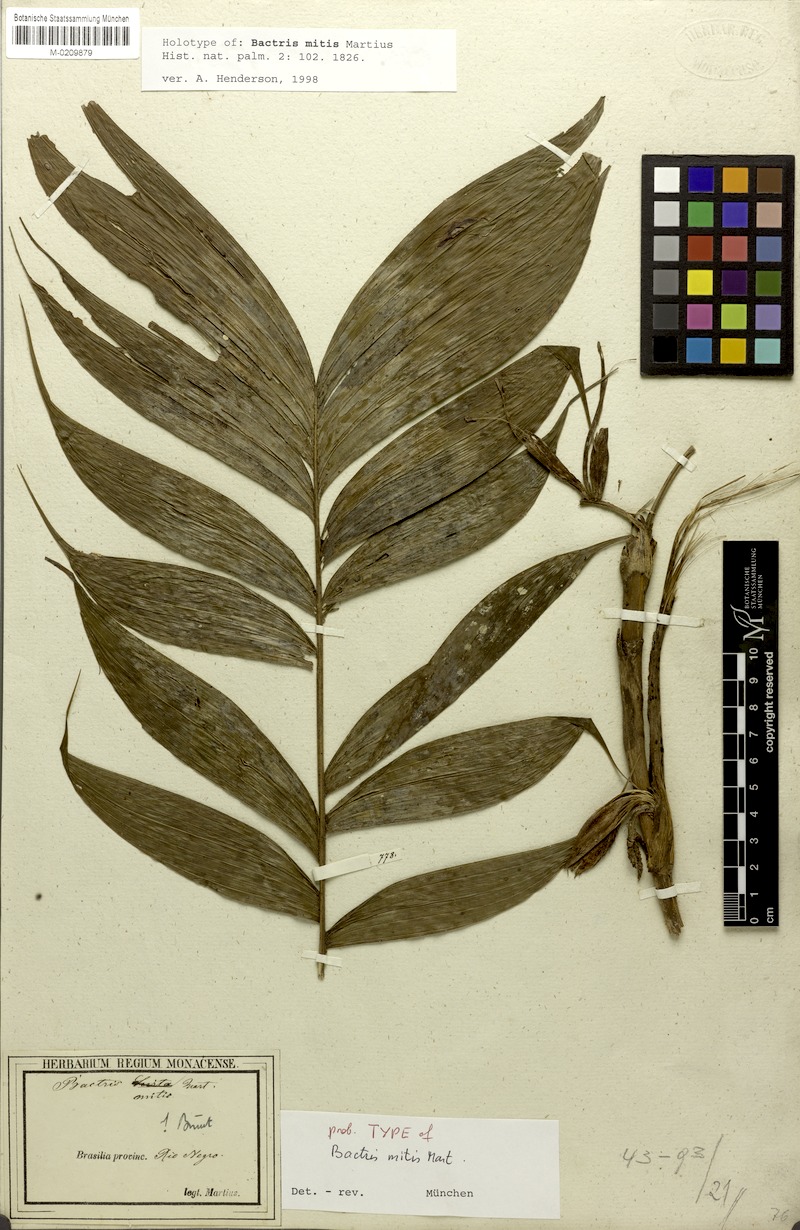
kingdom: Plantae
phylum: Tracheophyta
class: Liliopsida
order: Arecales
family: Arecaceae
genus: Bactris
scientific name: Bactris cuspidata
